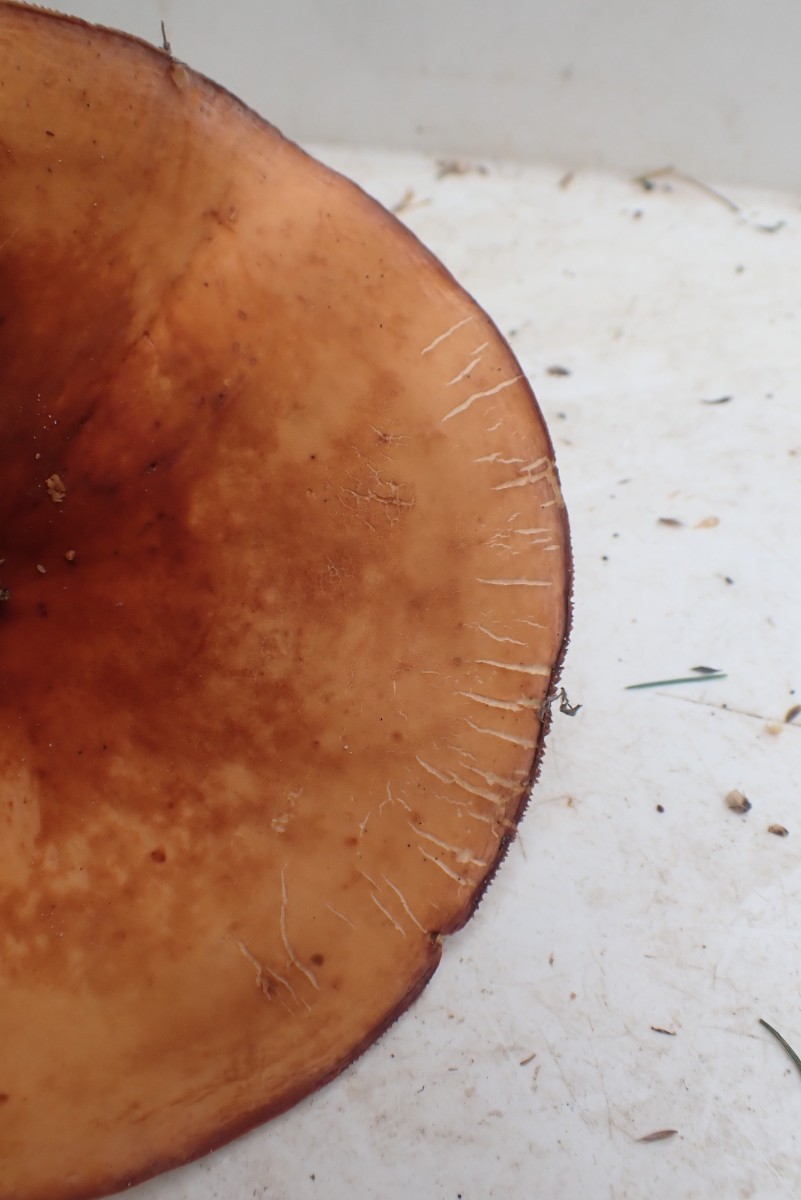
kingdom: Fungi
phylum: Basidiomycota
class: Agaricomycetes
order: Russulales
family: Russulaceae
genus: Lactifluus
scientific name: Lactifluus volemus
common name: spiselig mælkehat
